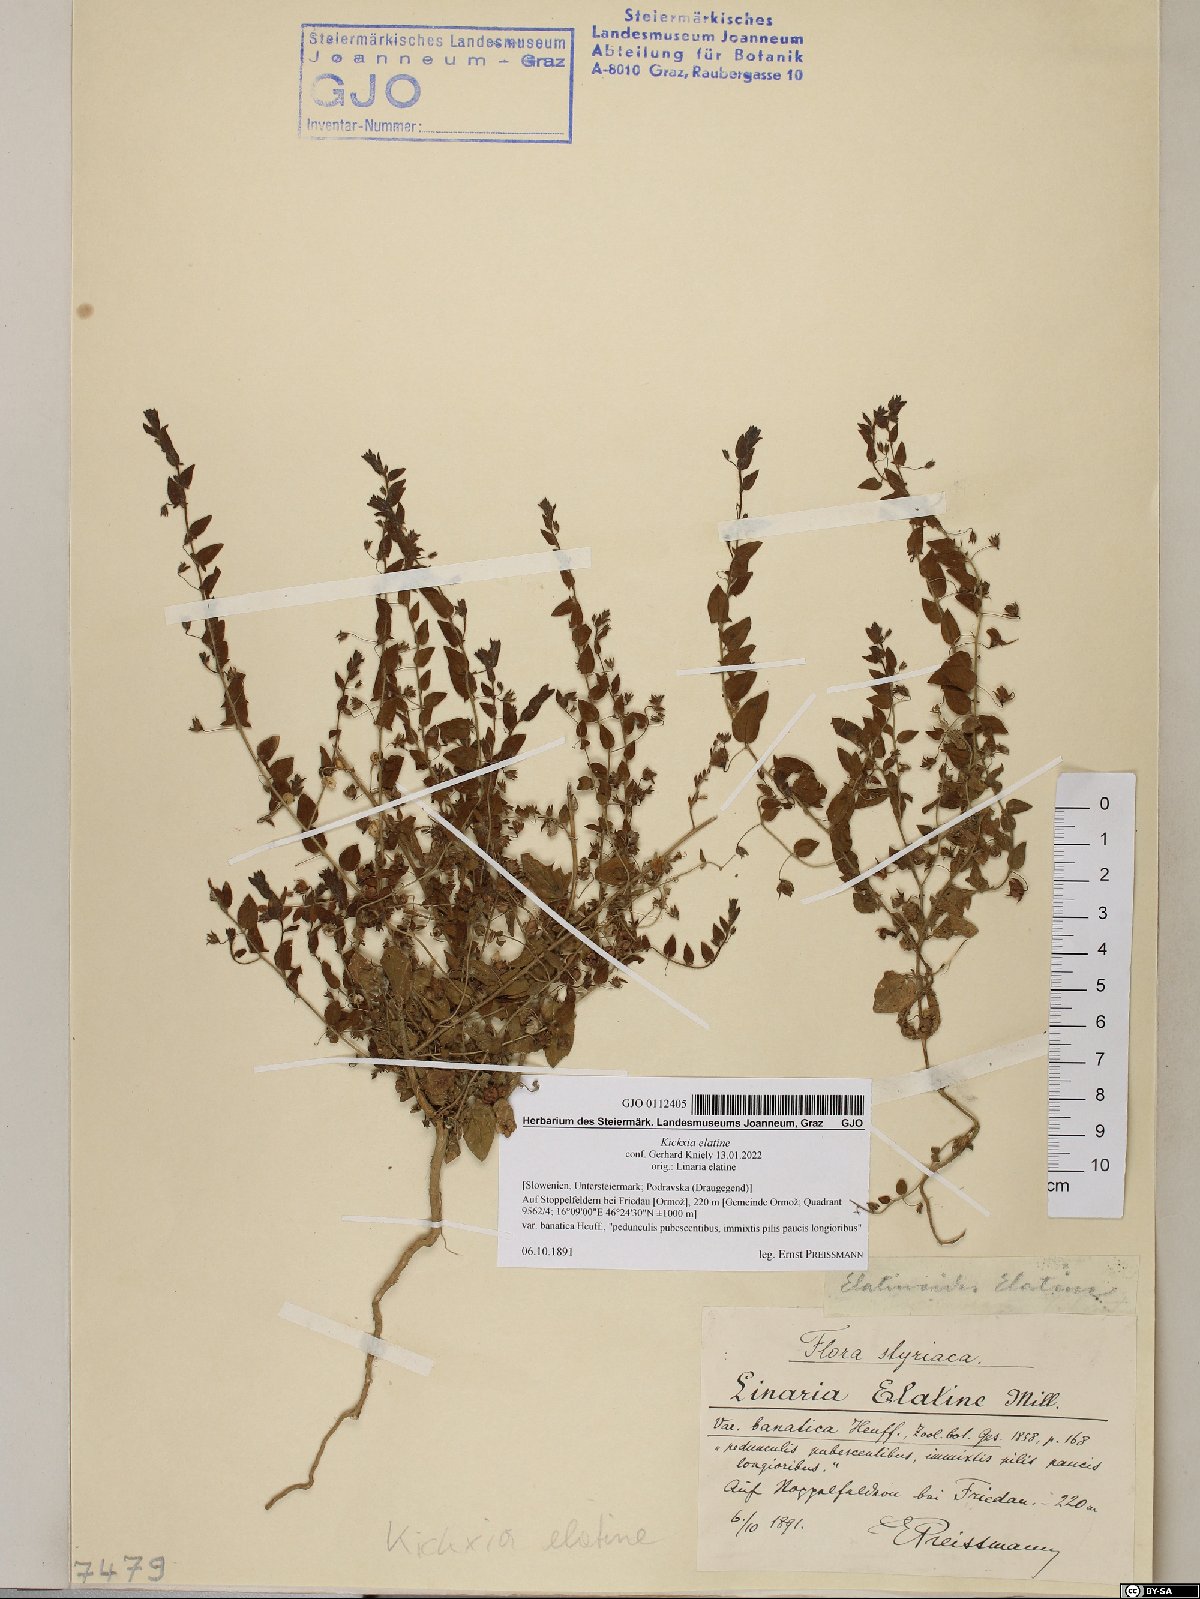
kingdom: Plantae
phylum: Tracheophyta
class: Magnoliopsida
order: Lamiales
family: Plantaginaceae
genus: Kickxia
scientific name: Kickxia elatine
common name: Sharp-leaved fluellen
